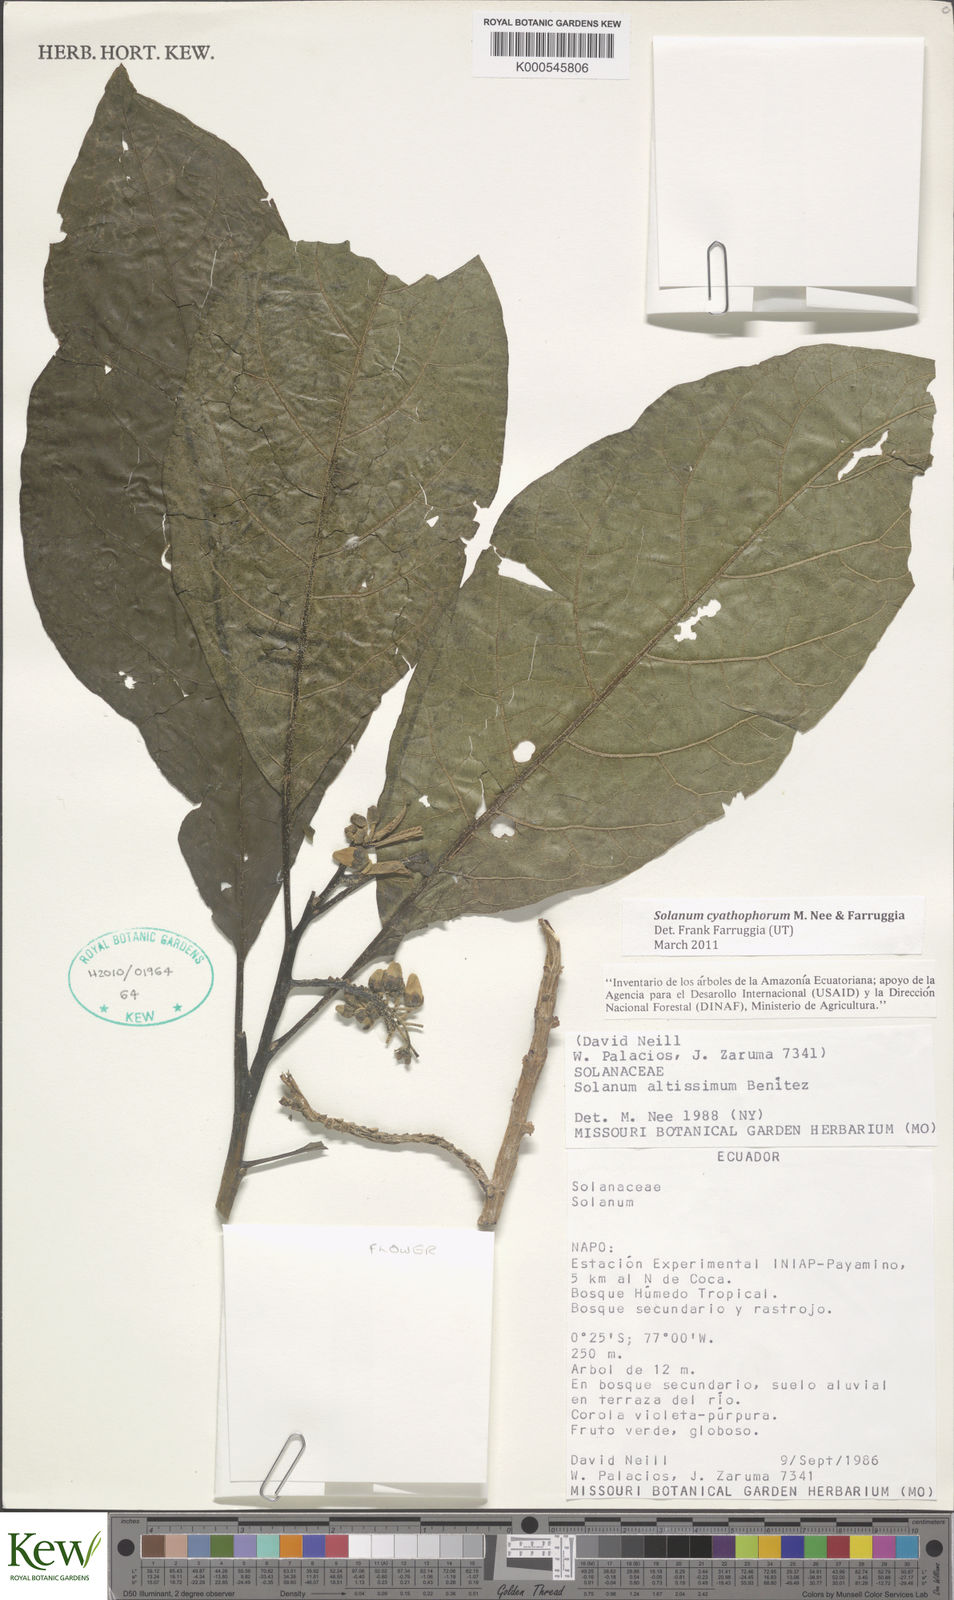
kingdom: Plantae
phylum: Tracheophyta
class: Magnoliopsida
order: Solanales
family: Solanaceae
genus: Solanum
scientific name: Solanum cyathophorum
